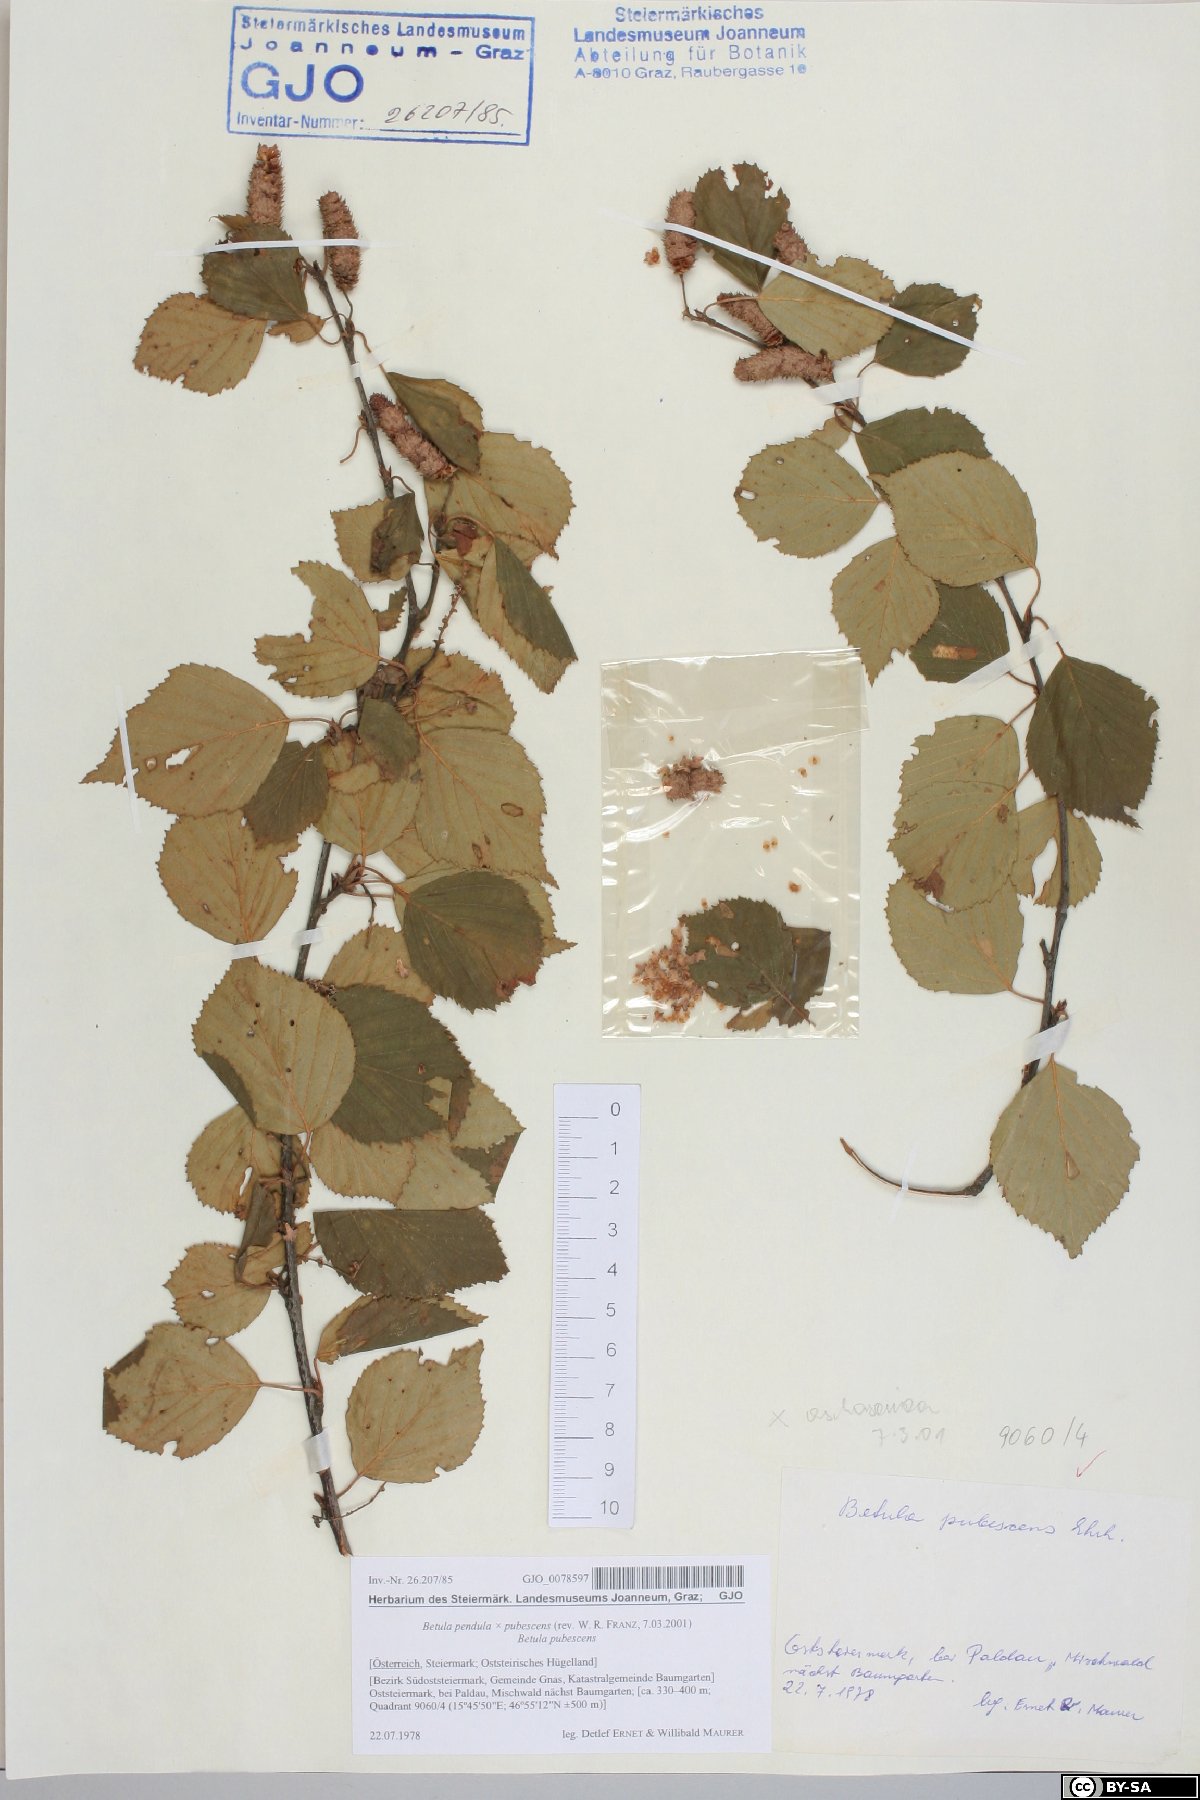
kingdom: Plantae
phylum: Tracheophyta
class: Magnoliopsida
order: Fagales
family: Betulaceae
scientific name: Betulaceae
